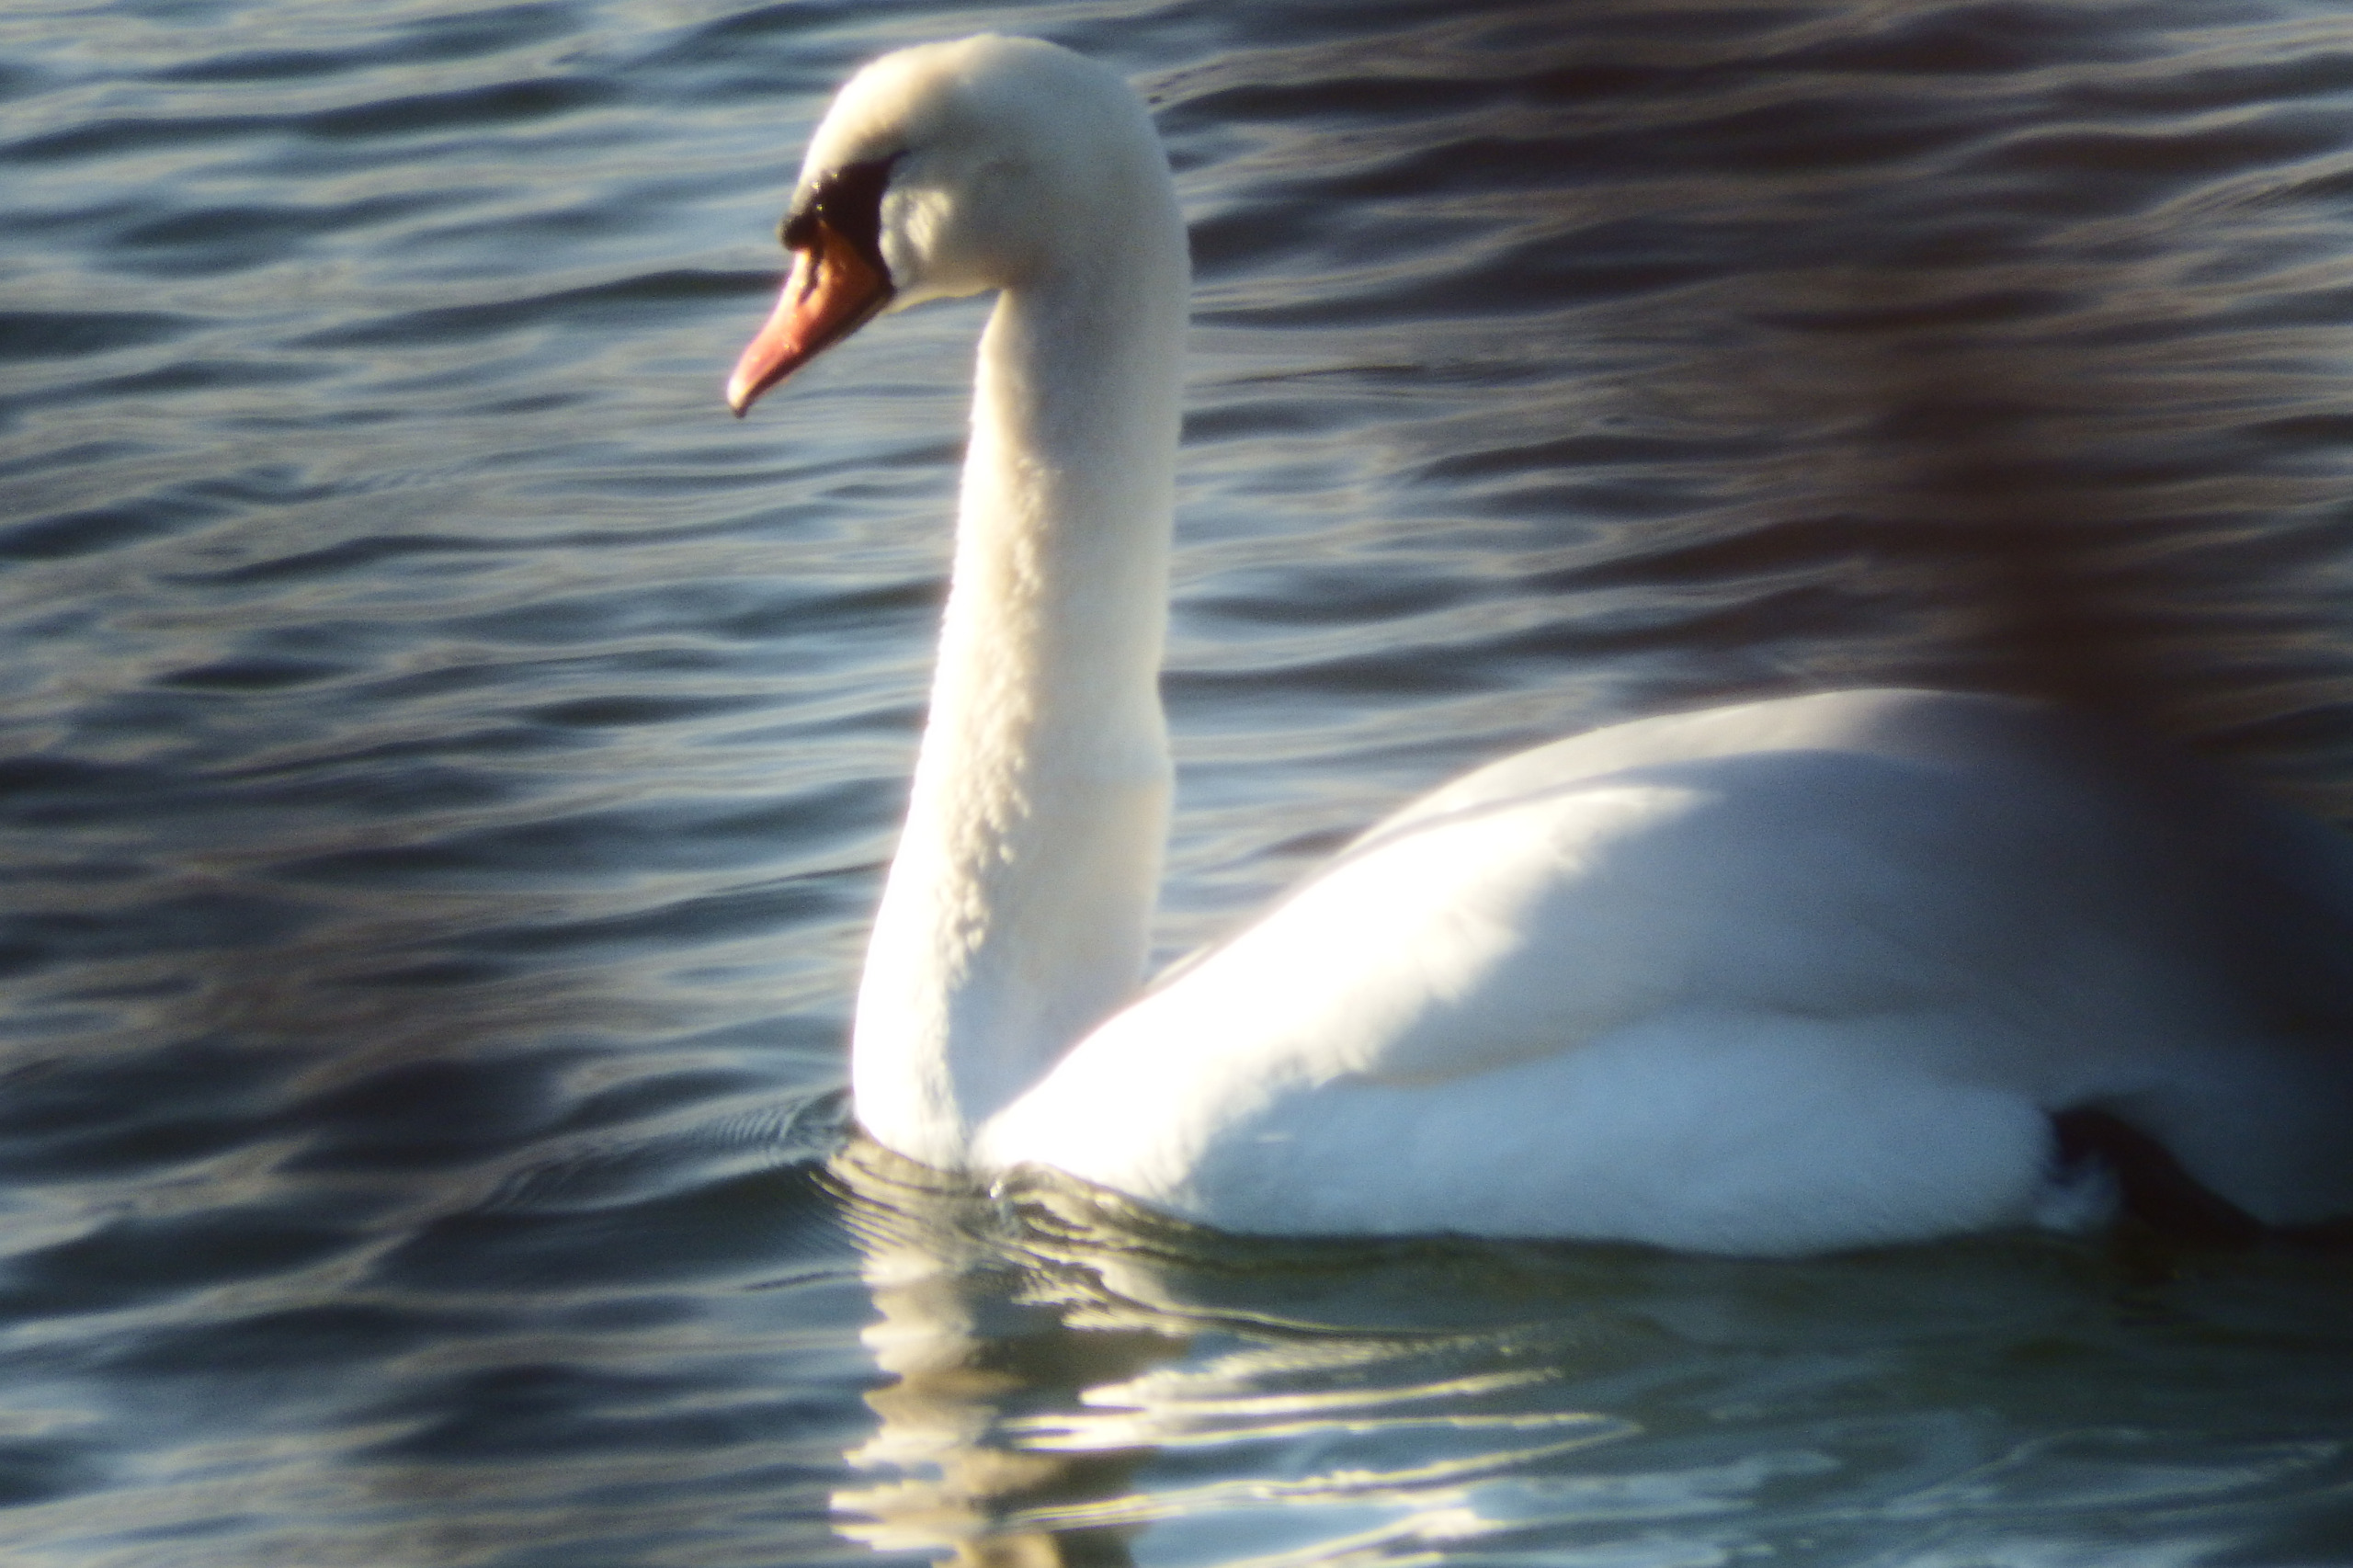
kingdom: Animalia
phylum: Chordata
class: Aves
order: Anseriformes
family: Anatidae
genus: Cygnus
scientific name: Cygnus olor
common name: Knopsvane
